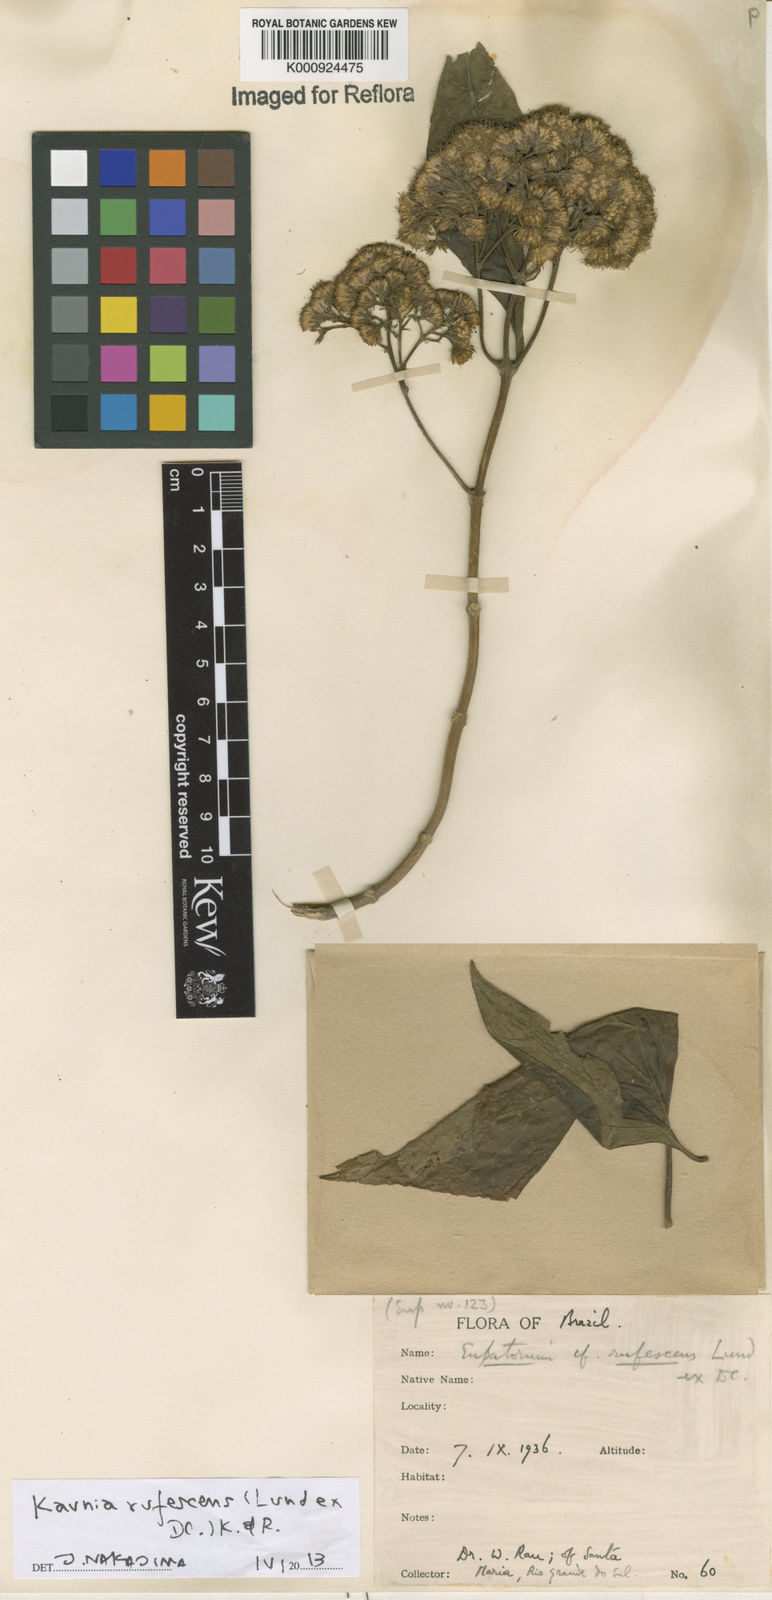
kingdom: Plantae
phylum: Tracheophyta
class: Magnoliopsida
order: Asterales
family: Asteraceae
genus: Kaunia
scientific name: Kaunia rufescens
